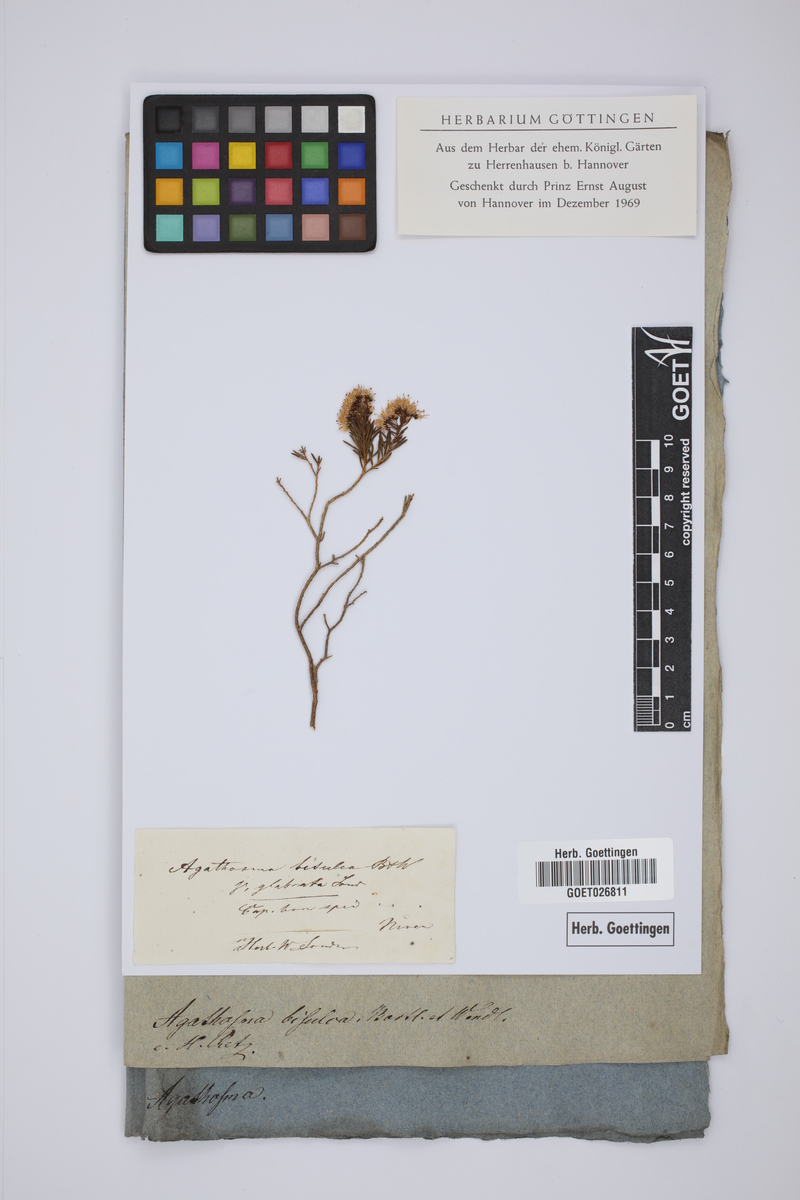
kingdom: Plantae
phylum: Tracheophyta
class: Magnoliopsida
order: Sapindales
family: Rutaceae
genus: Agathosma
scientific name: Agathosma bisulca
